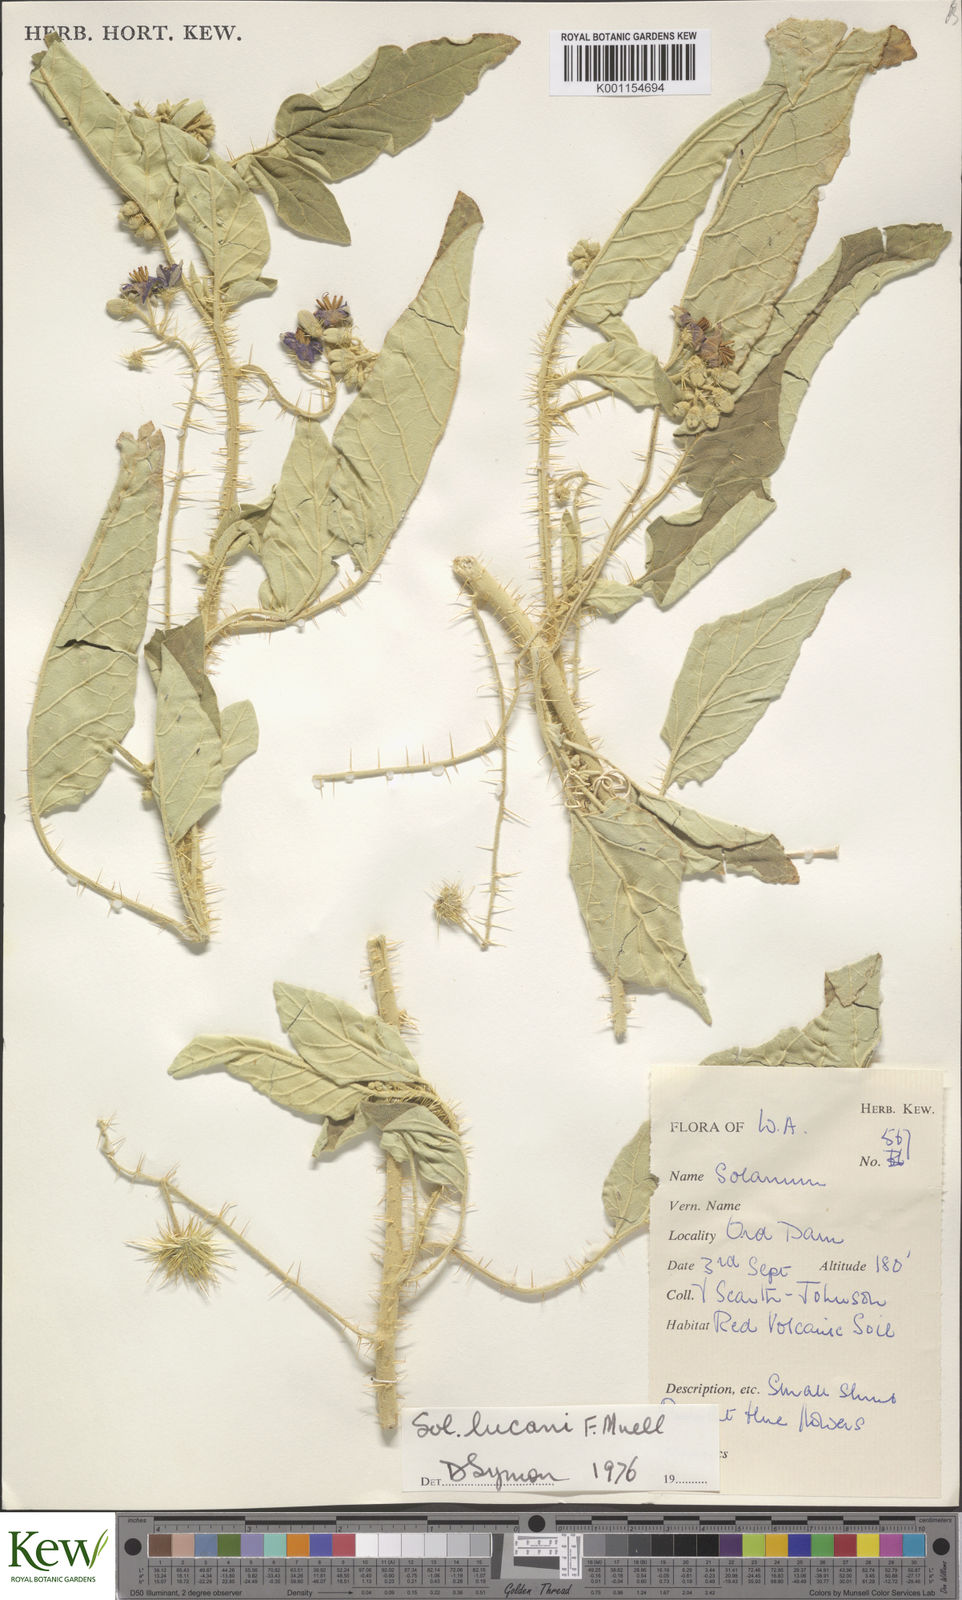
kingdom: Plantae
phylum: Tracheophyta
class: Magnoliopsida
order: Solanales
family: Solanaceae
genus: Solanum
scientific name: Solanum lucani
